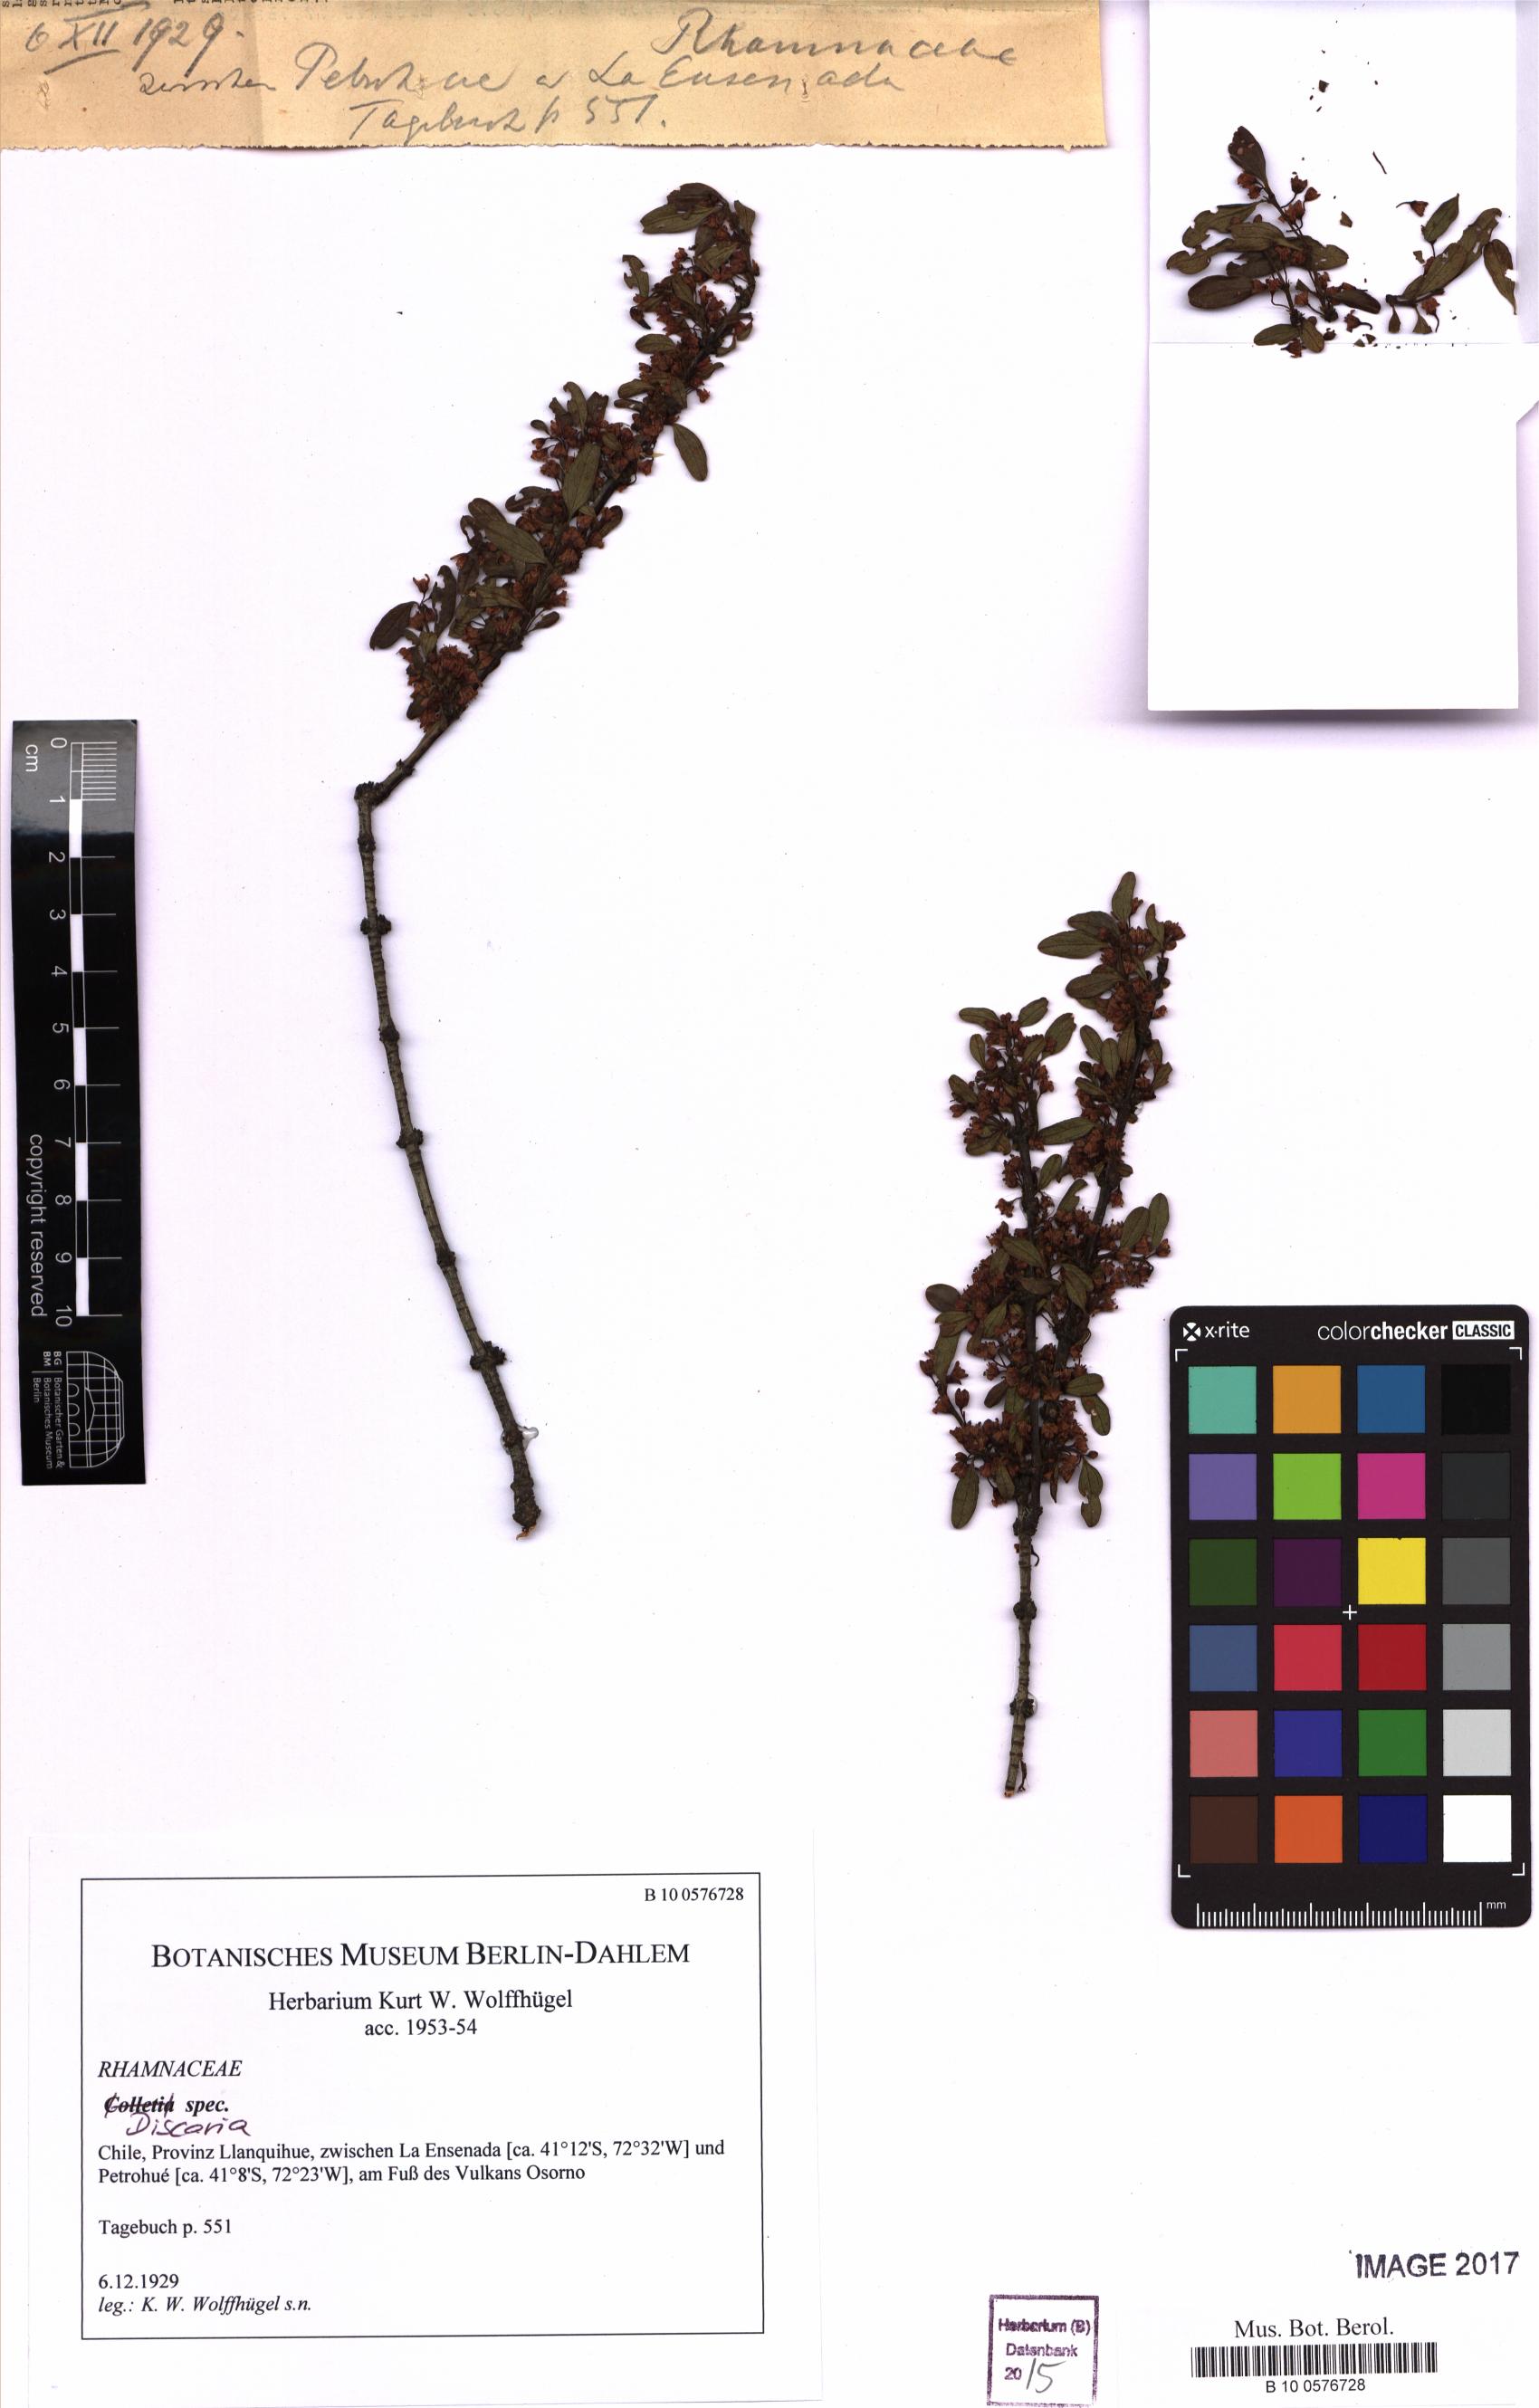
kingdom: Plantae
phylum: Tracheophyta
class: Magnoliopsida
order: Rosales
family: Rhamnaceae
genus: Discaria
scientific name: Discaria
